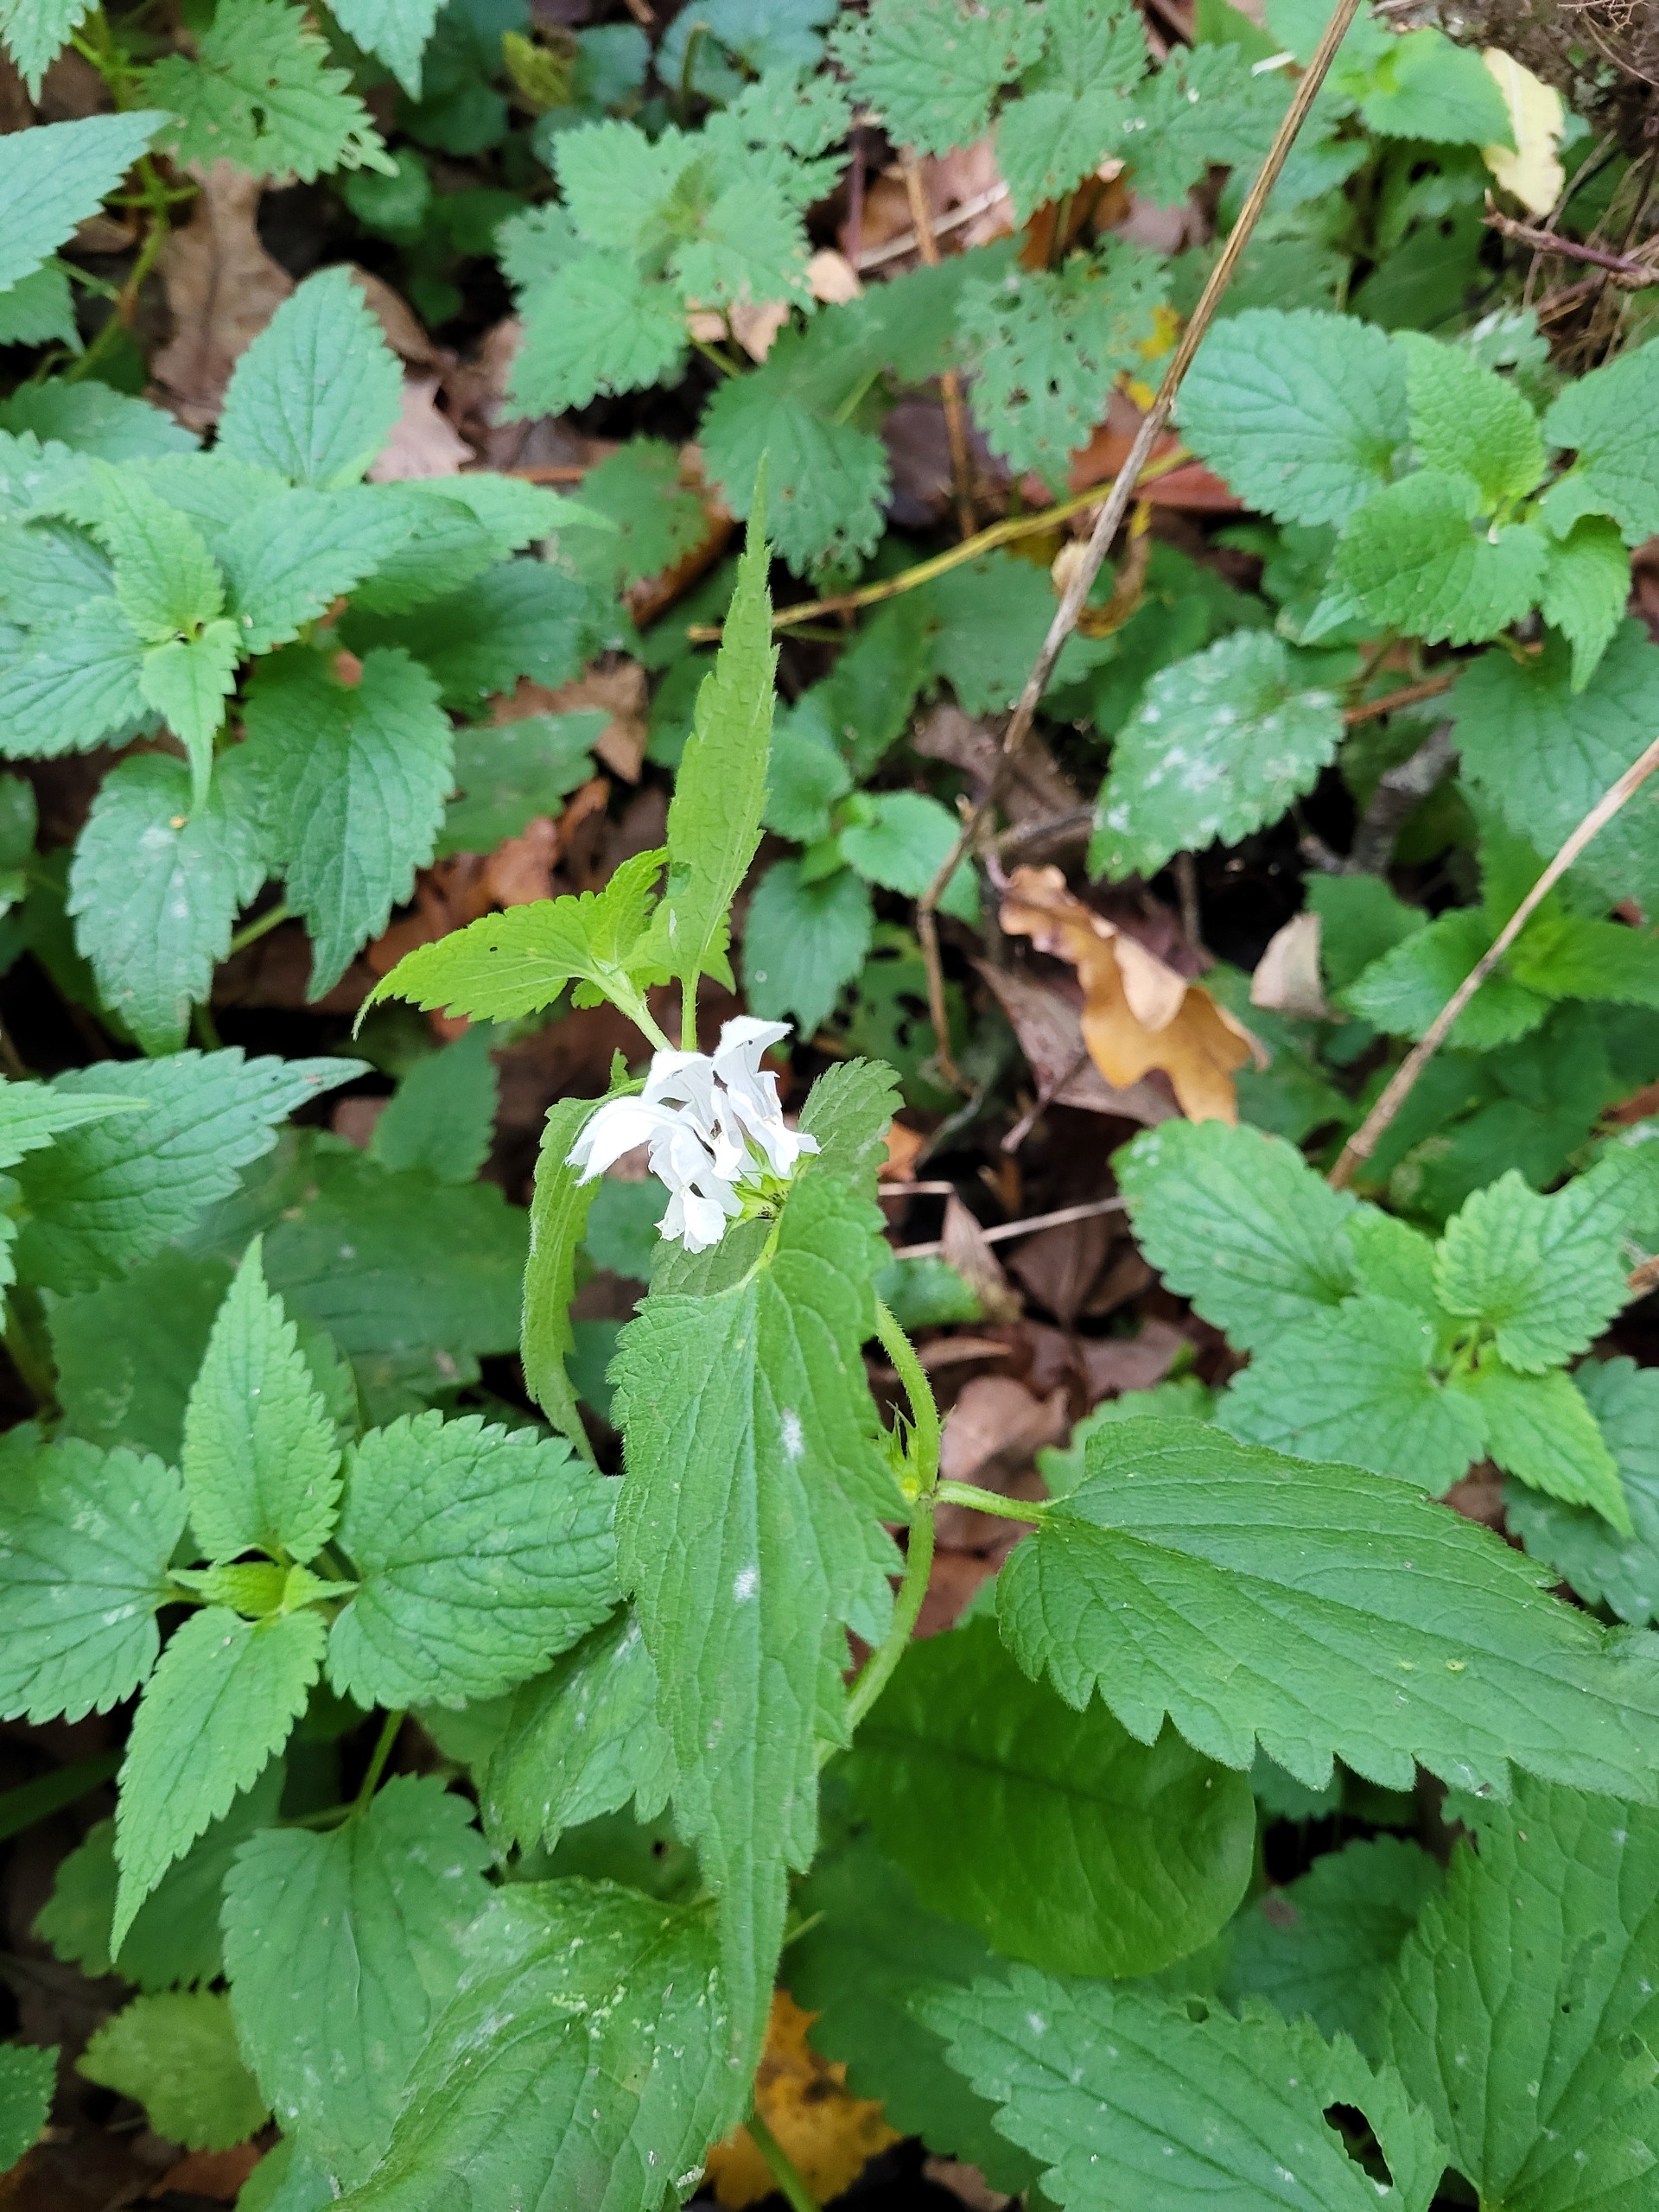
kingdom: Plantae
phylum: Tracheophyta
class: Magnoliopsida
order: Lamiales
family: Lamiaceae
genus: Lamium
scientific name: Lamium album
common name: Døvnælde
